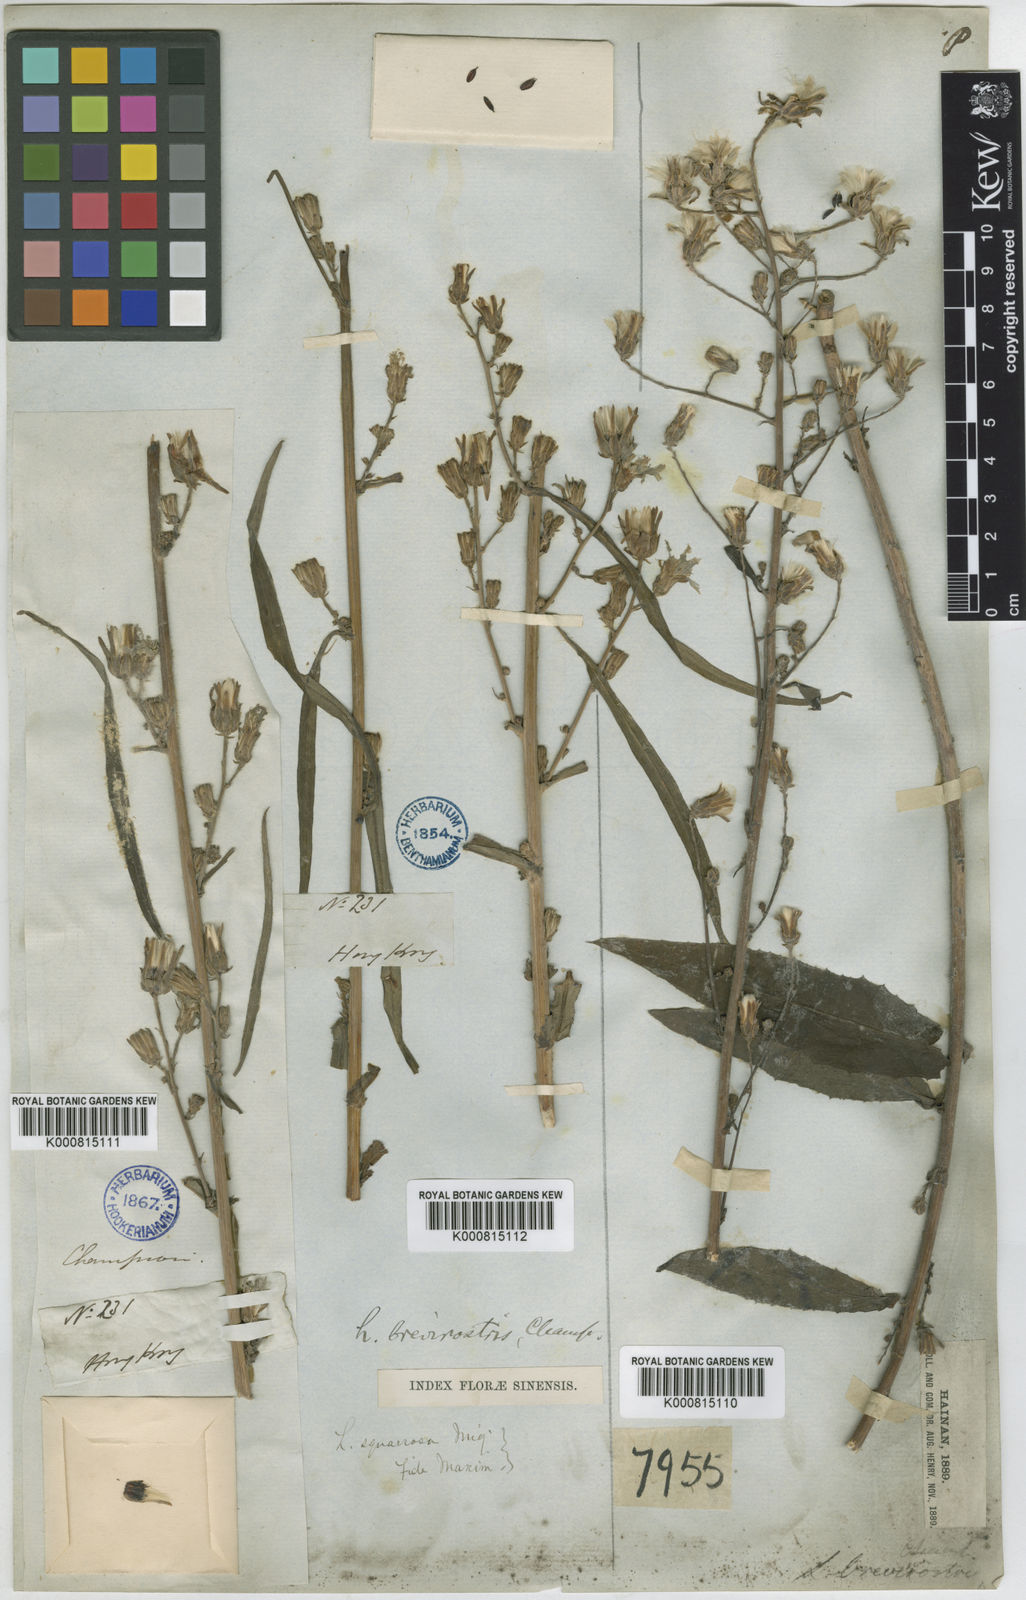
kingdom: Plantae
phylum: Tracheophyta
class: Magnoliopsida
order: Asterales
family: Asteraceae
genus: Lactuca
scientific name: Lactuca indica
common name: Wild lettuce
